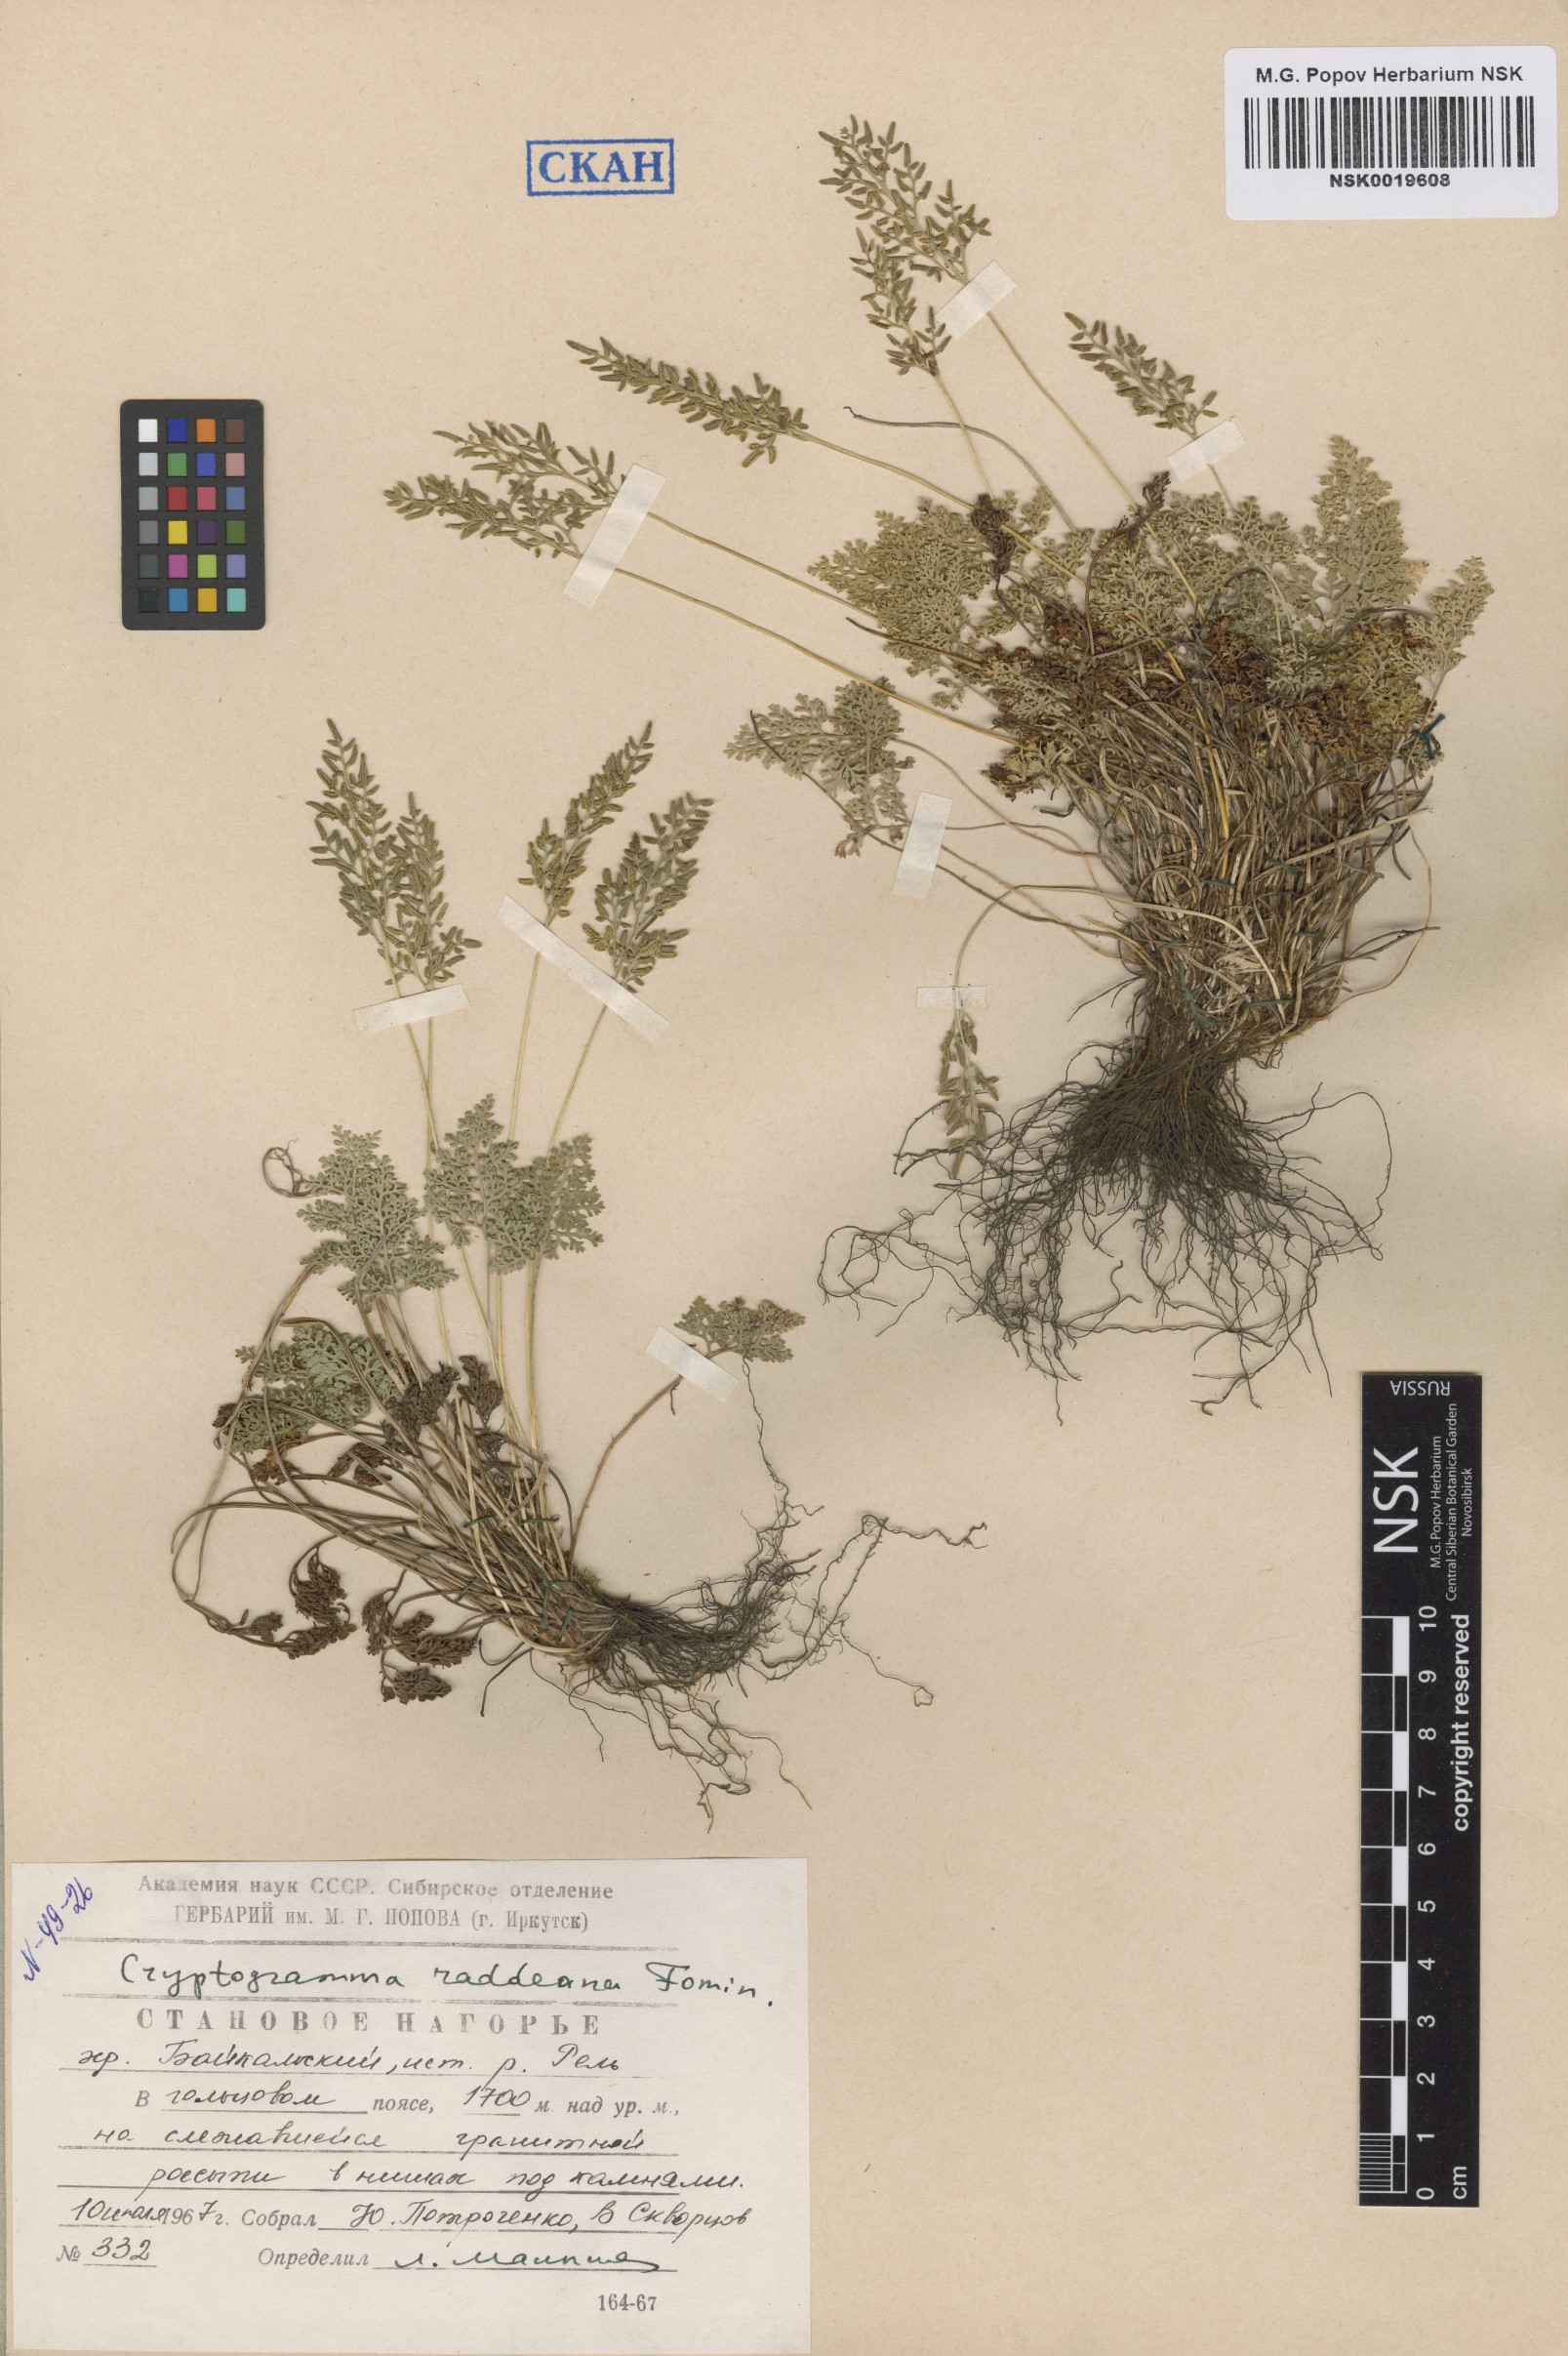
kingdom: Plantae
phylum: Tracheophyta
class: Polypodiopsida
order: Polypodiales
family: Pteridaceae
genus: Cryptogramma
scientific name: Cryptogramma brunoniana
